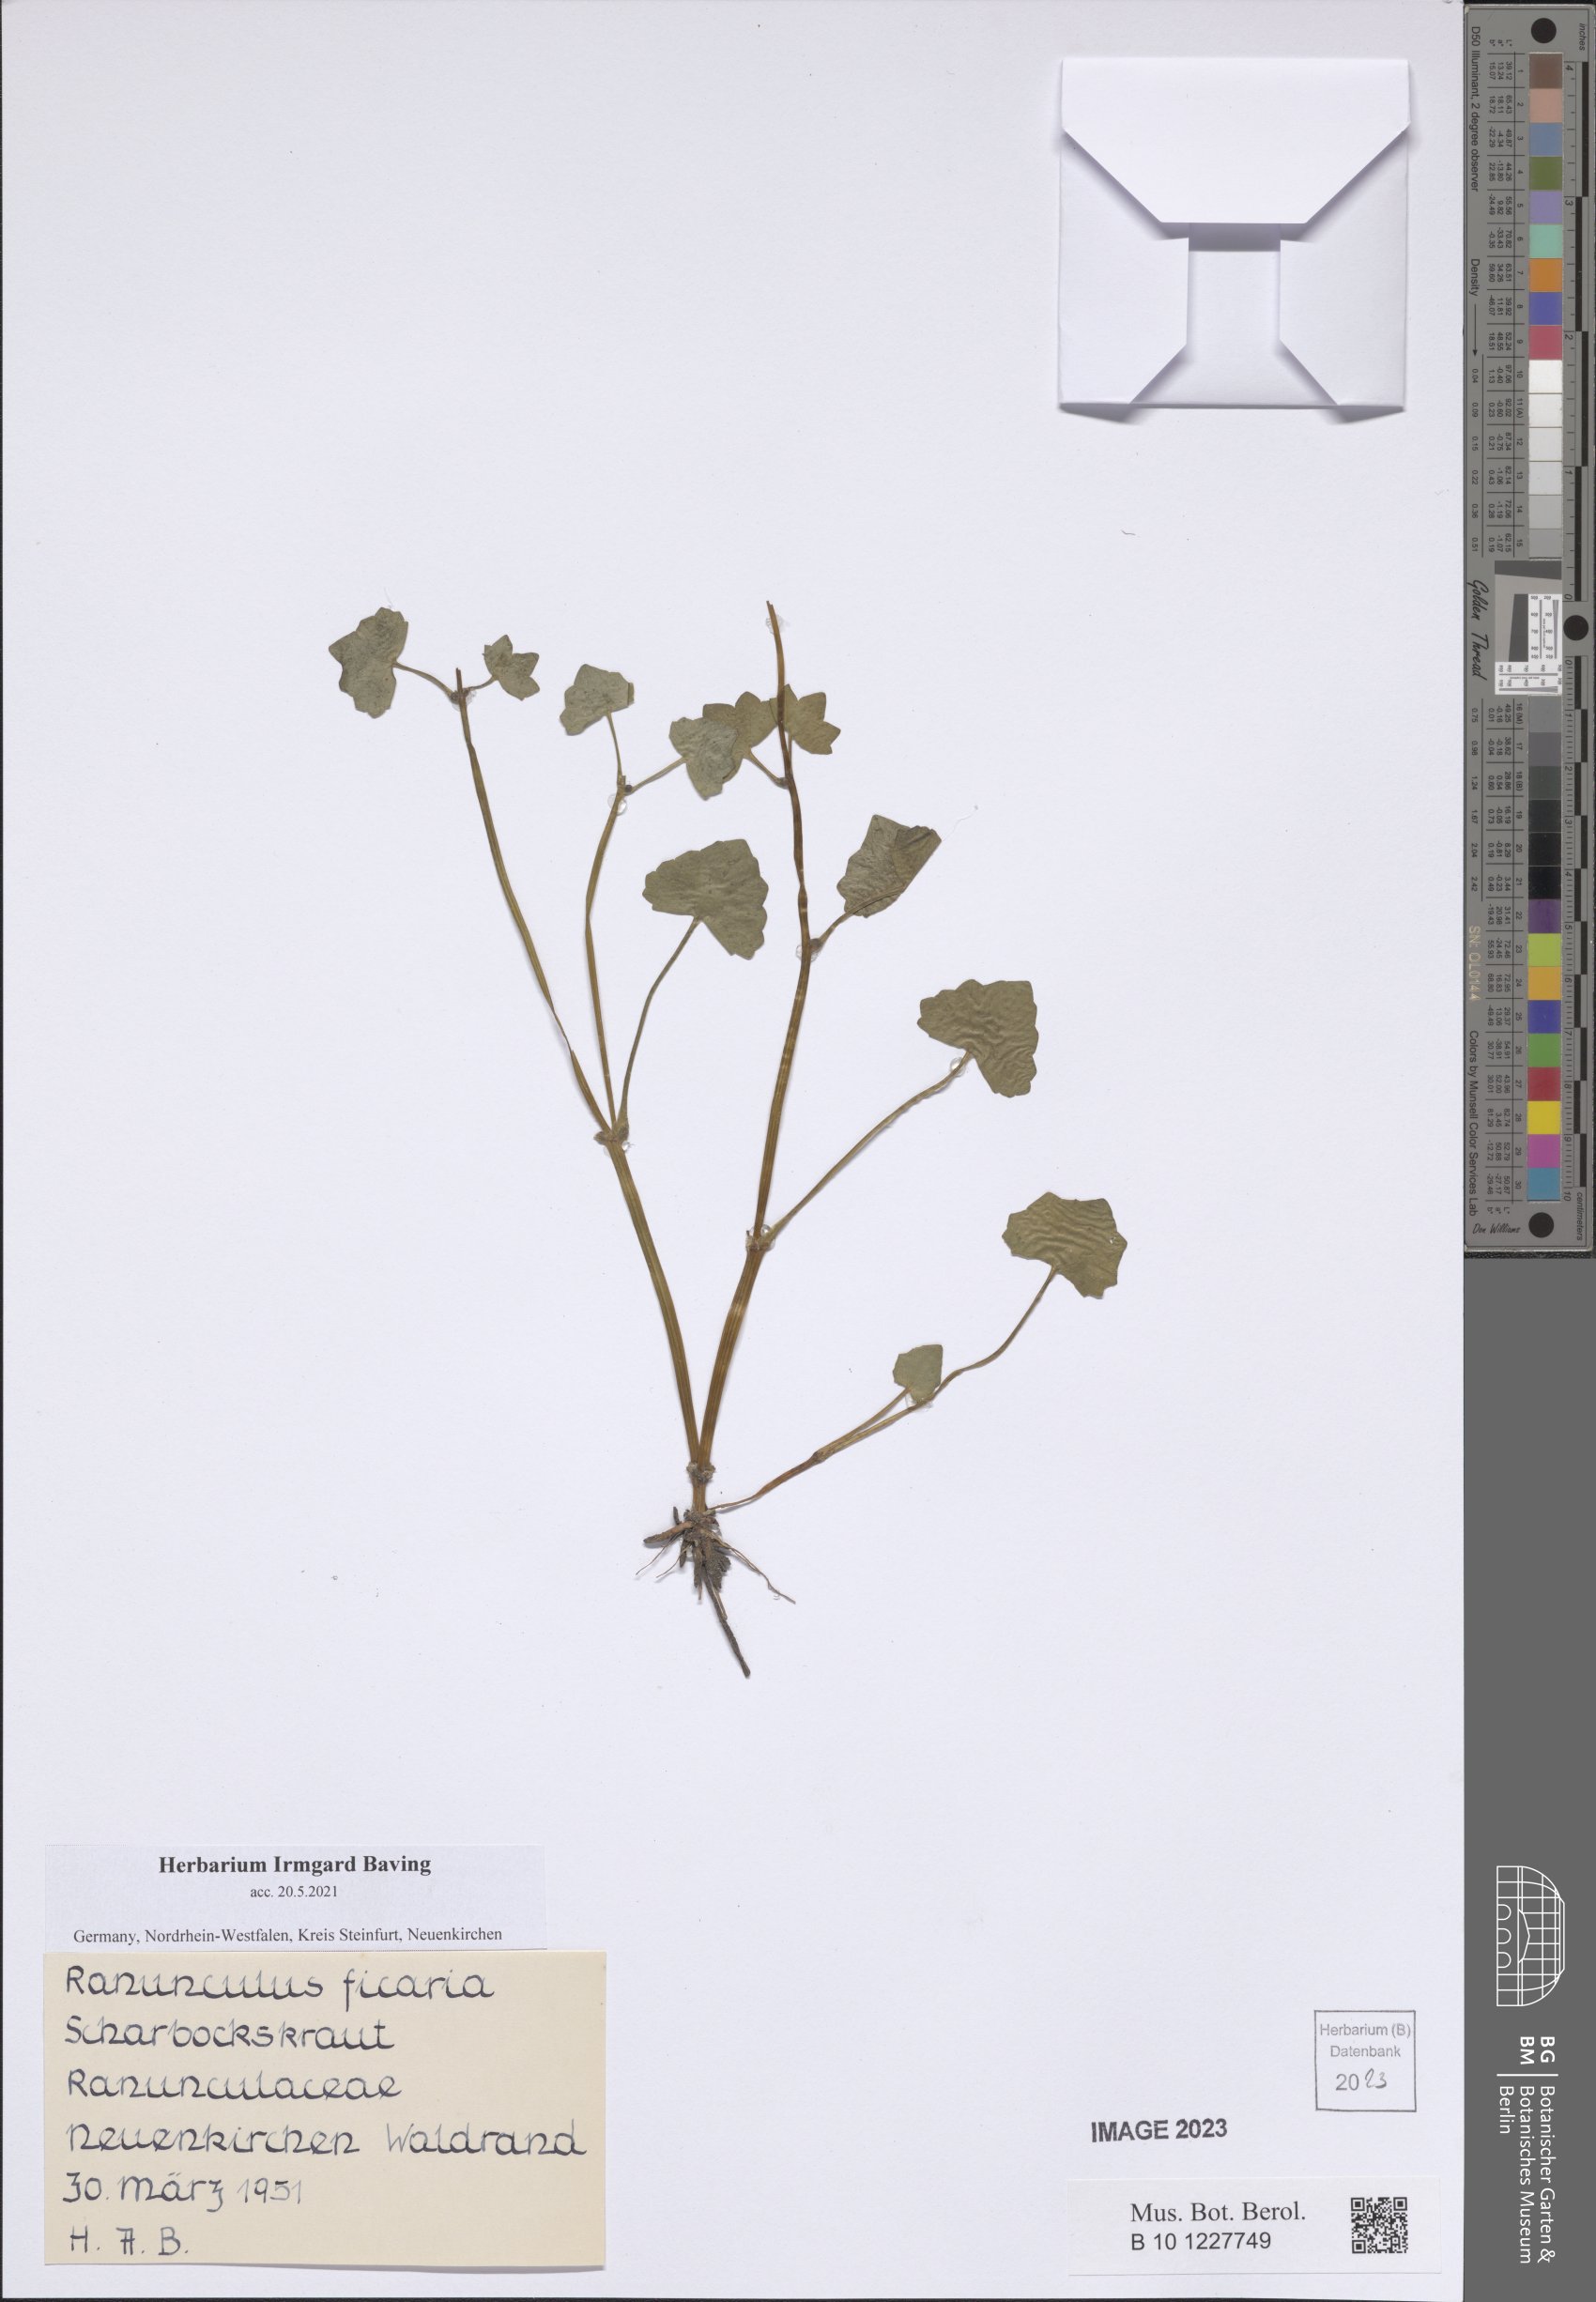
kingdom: Plantae
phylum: Tracheophyta
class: Magnoliopsida
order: Ranunculales
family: Ranunculaceae
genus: Ficaria
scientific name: Ficaria verna
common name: Lesser celandine
